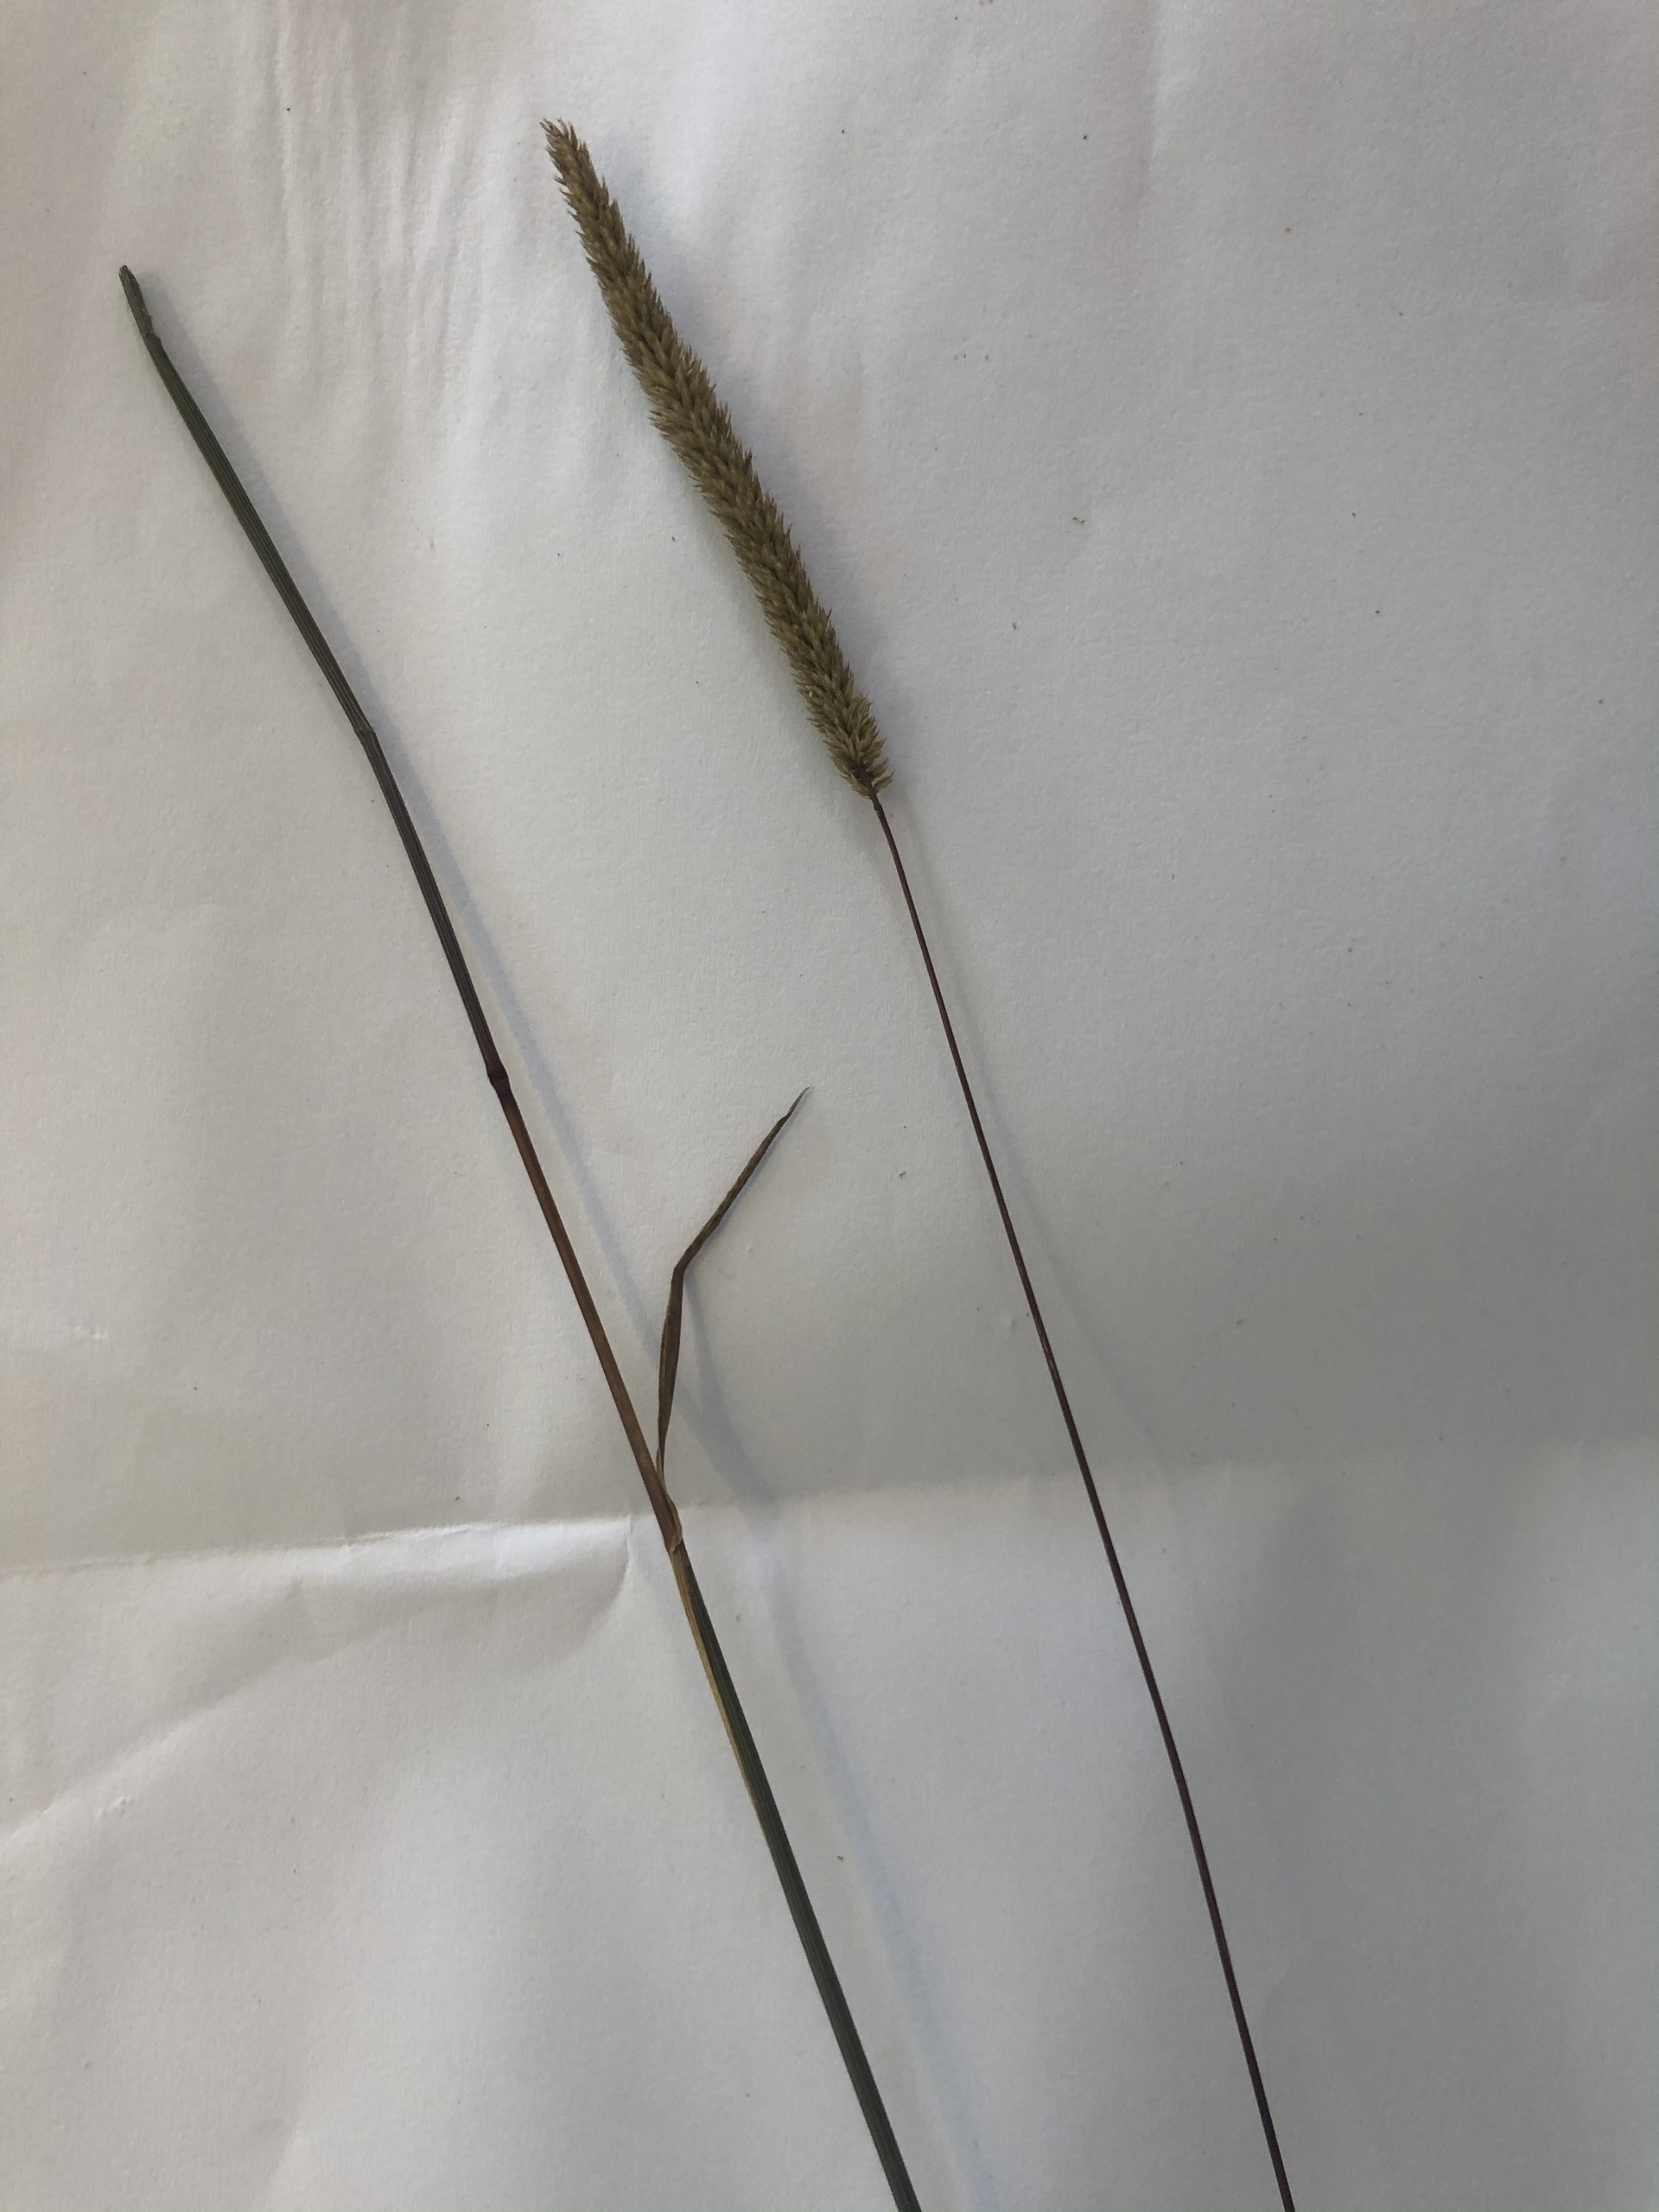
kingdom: Plantae
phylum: Tracheophyta
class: Liliopsida
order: Poales
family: Poaceae
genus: Phleum
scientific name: Phleum phleoides
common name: Glat rottehale
